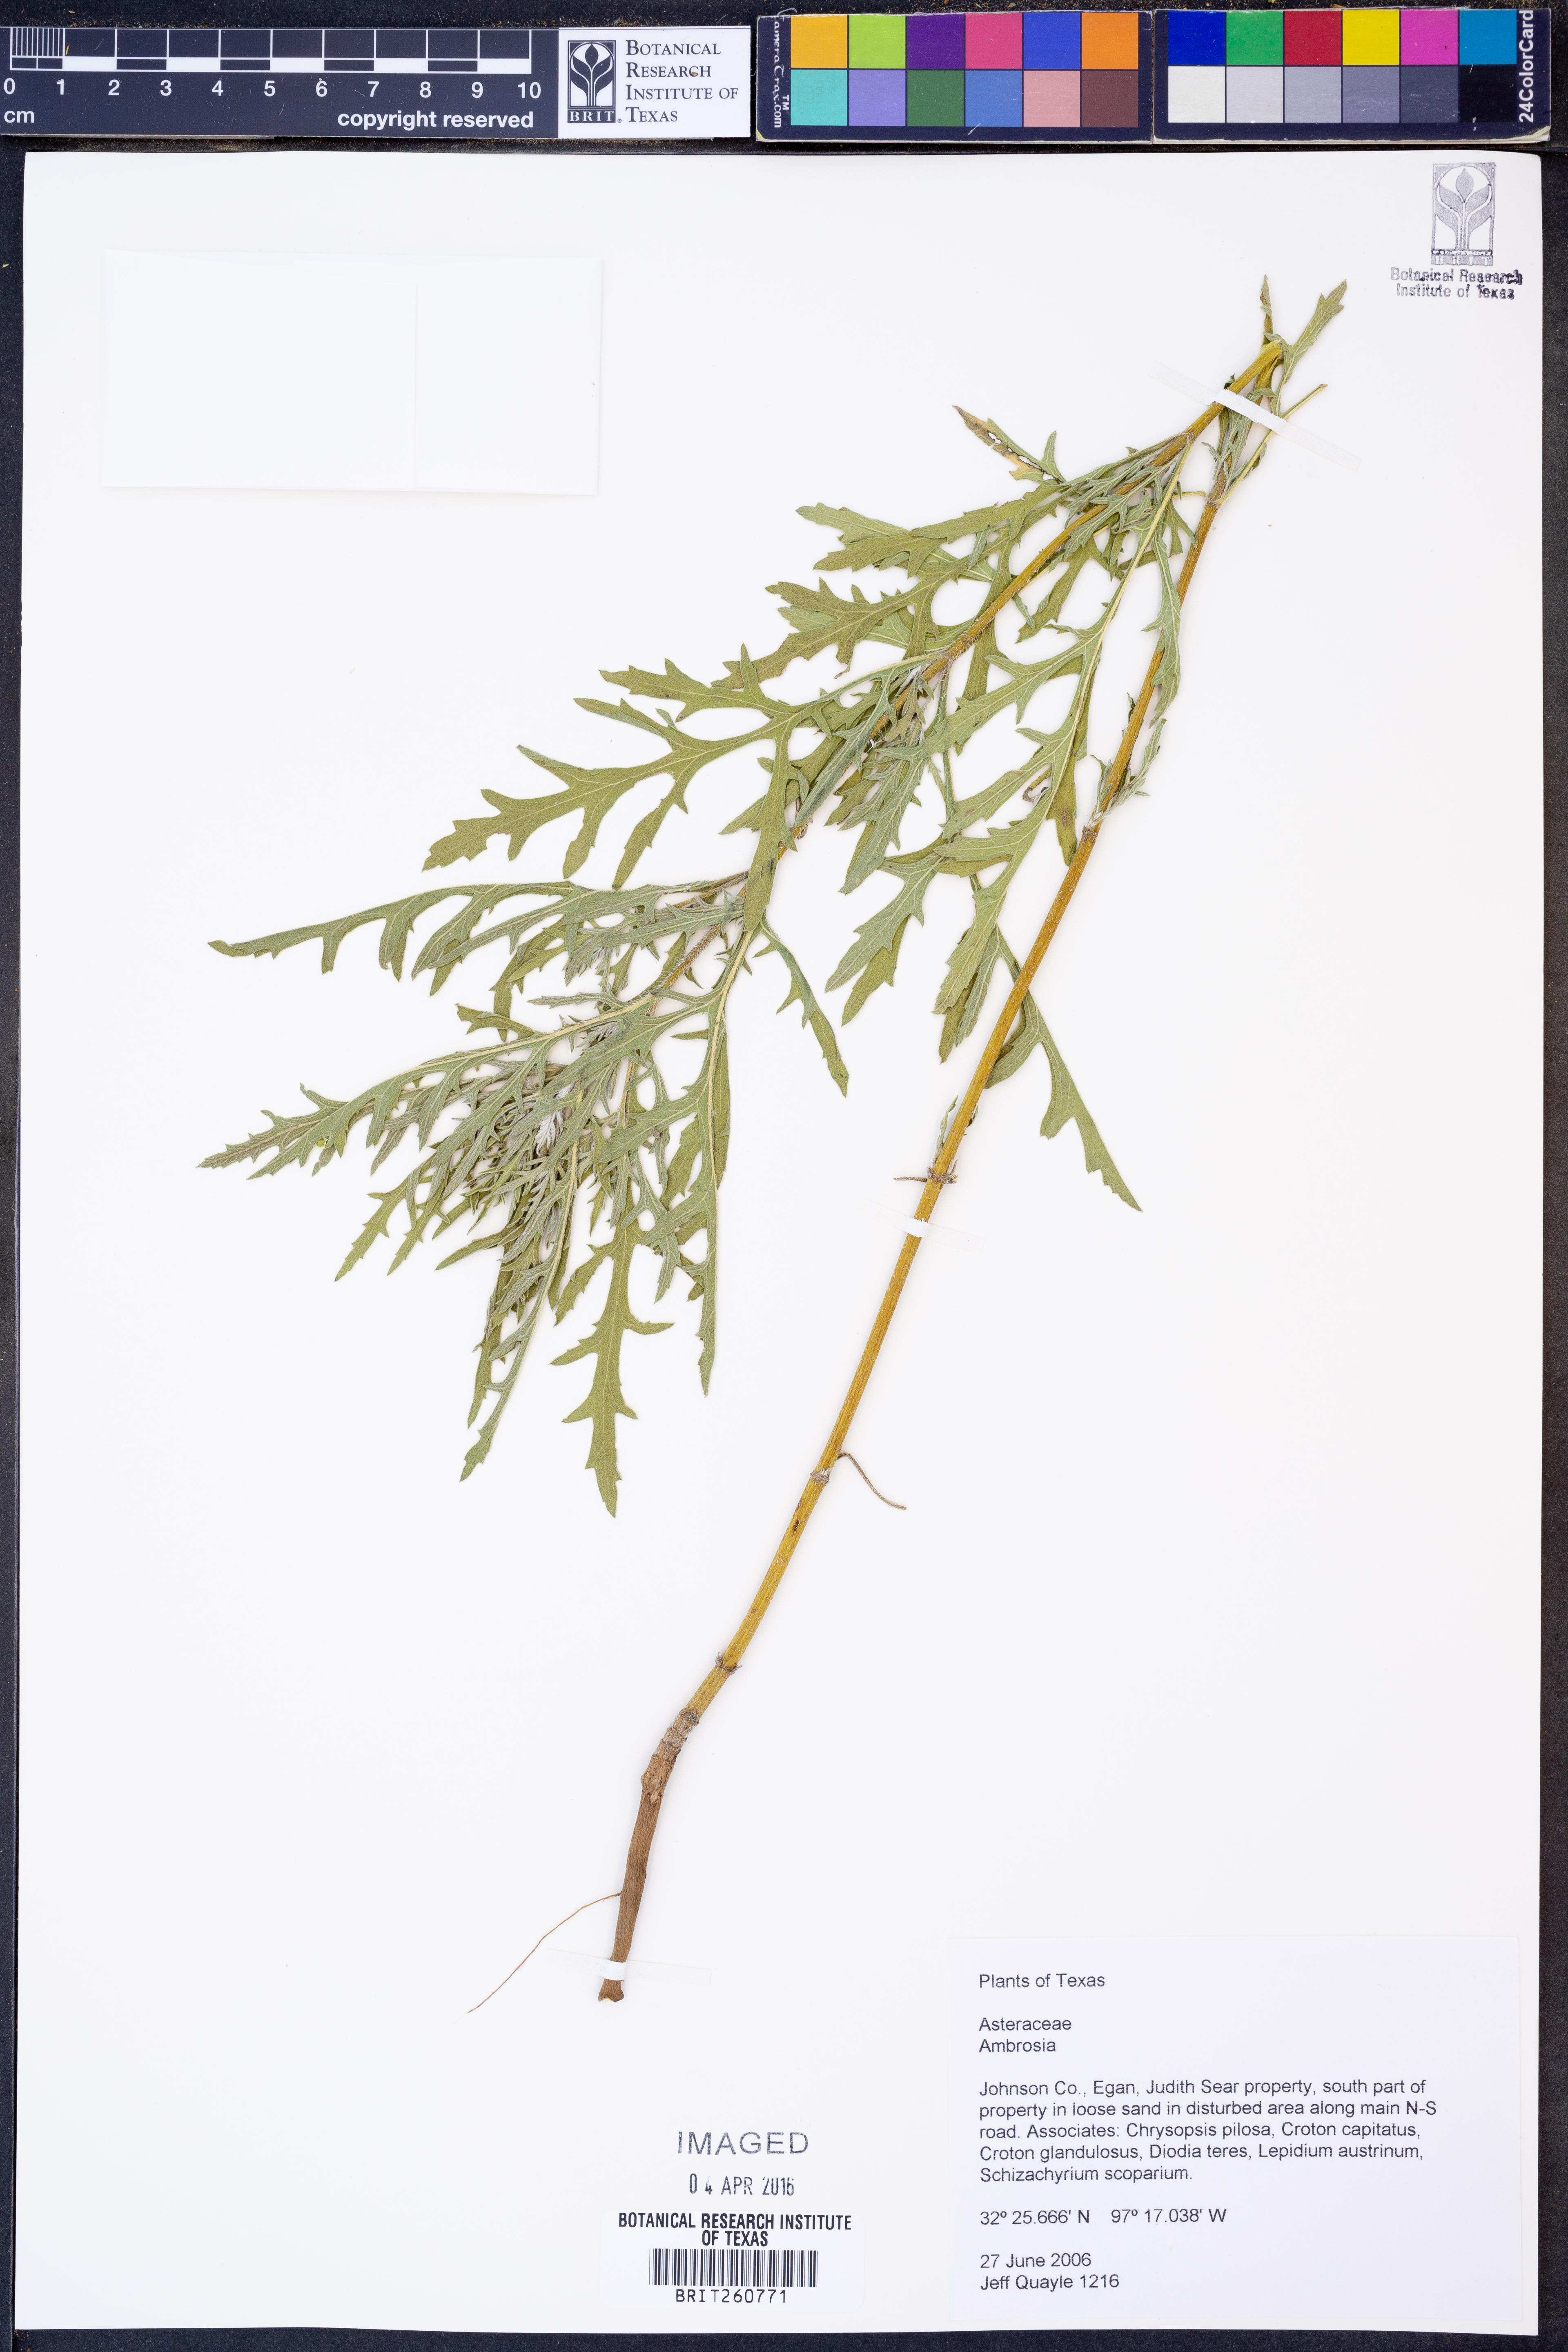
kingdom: Plantae
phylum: Tracheophyta
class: Magnoliopsida
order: Asterales
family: Asteraceae
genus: Ambrosia
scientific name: Ambrosia
